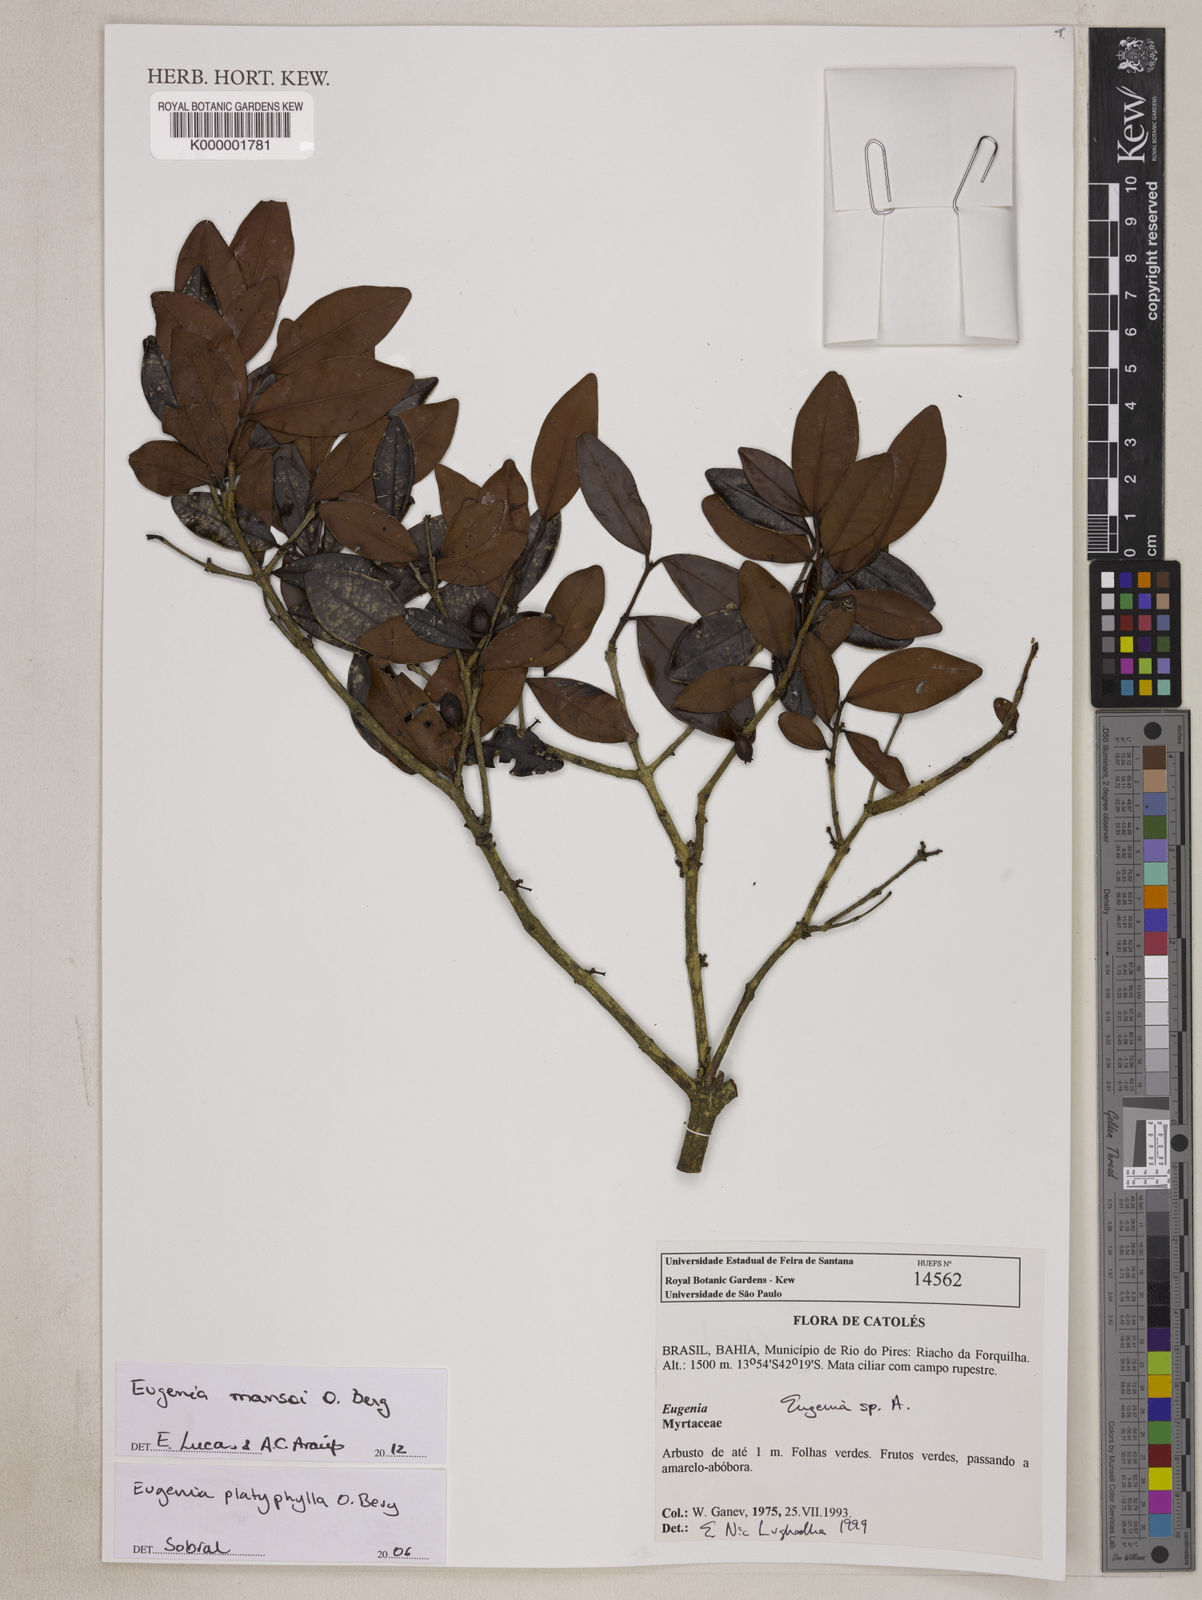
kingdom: Plantae
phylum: Tracheophyta
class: Magnoliopsida
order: Myrtales
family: Myrtaceae
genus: Myrcia
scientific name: Myrcia
